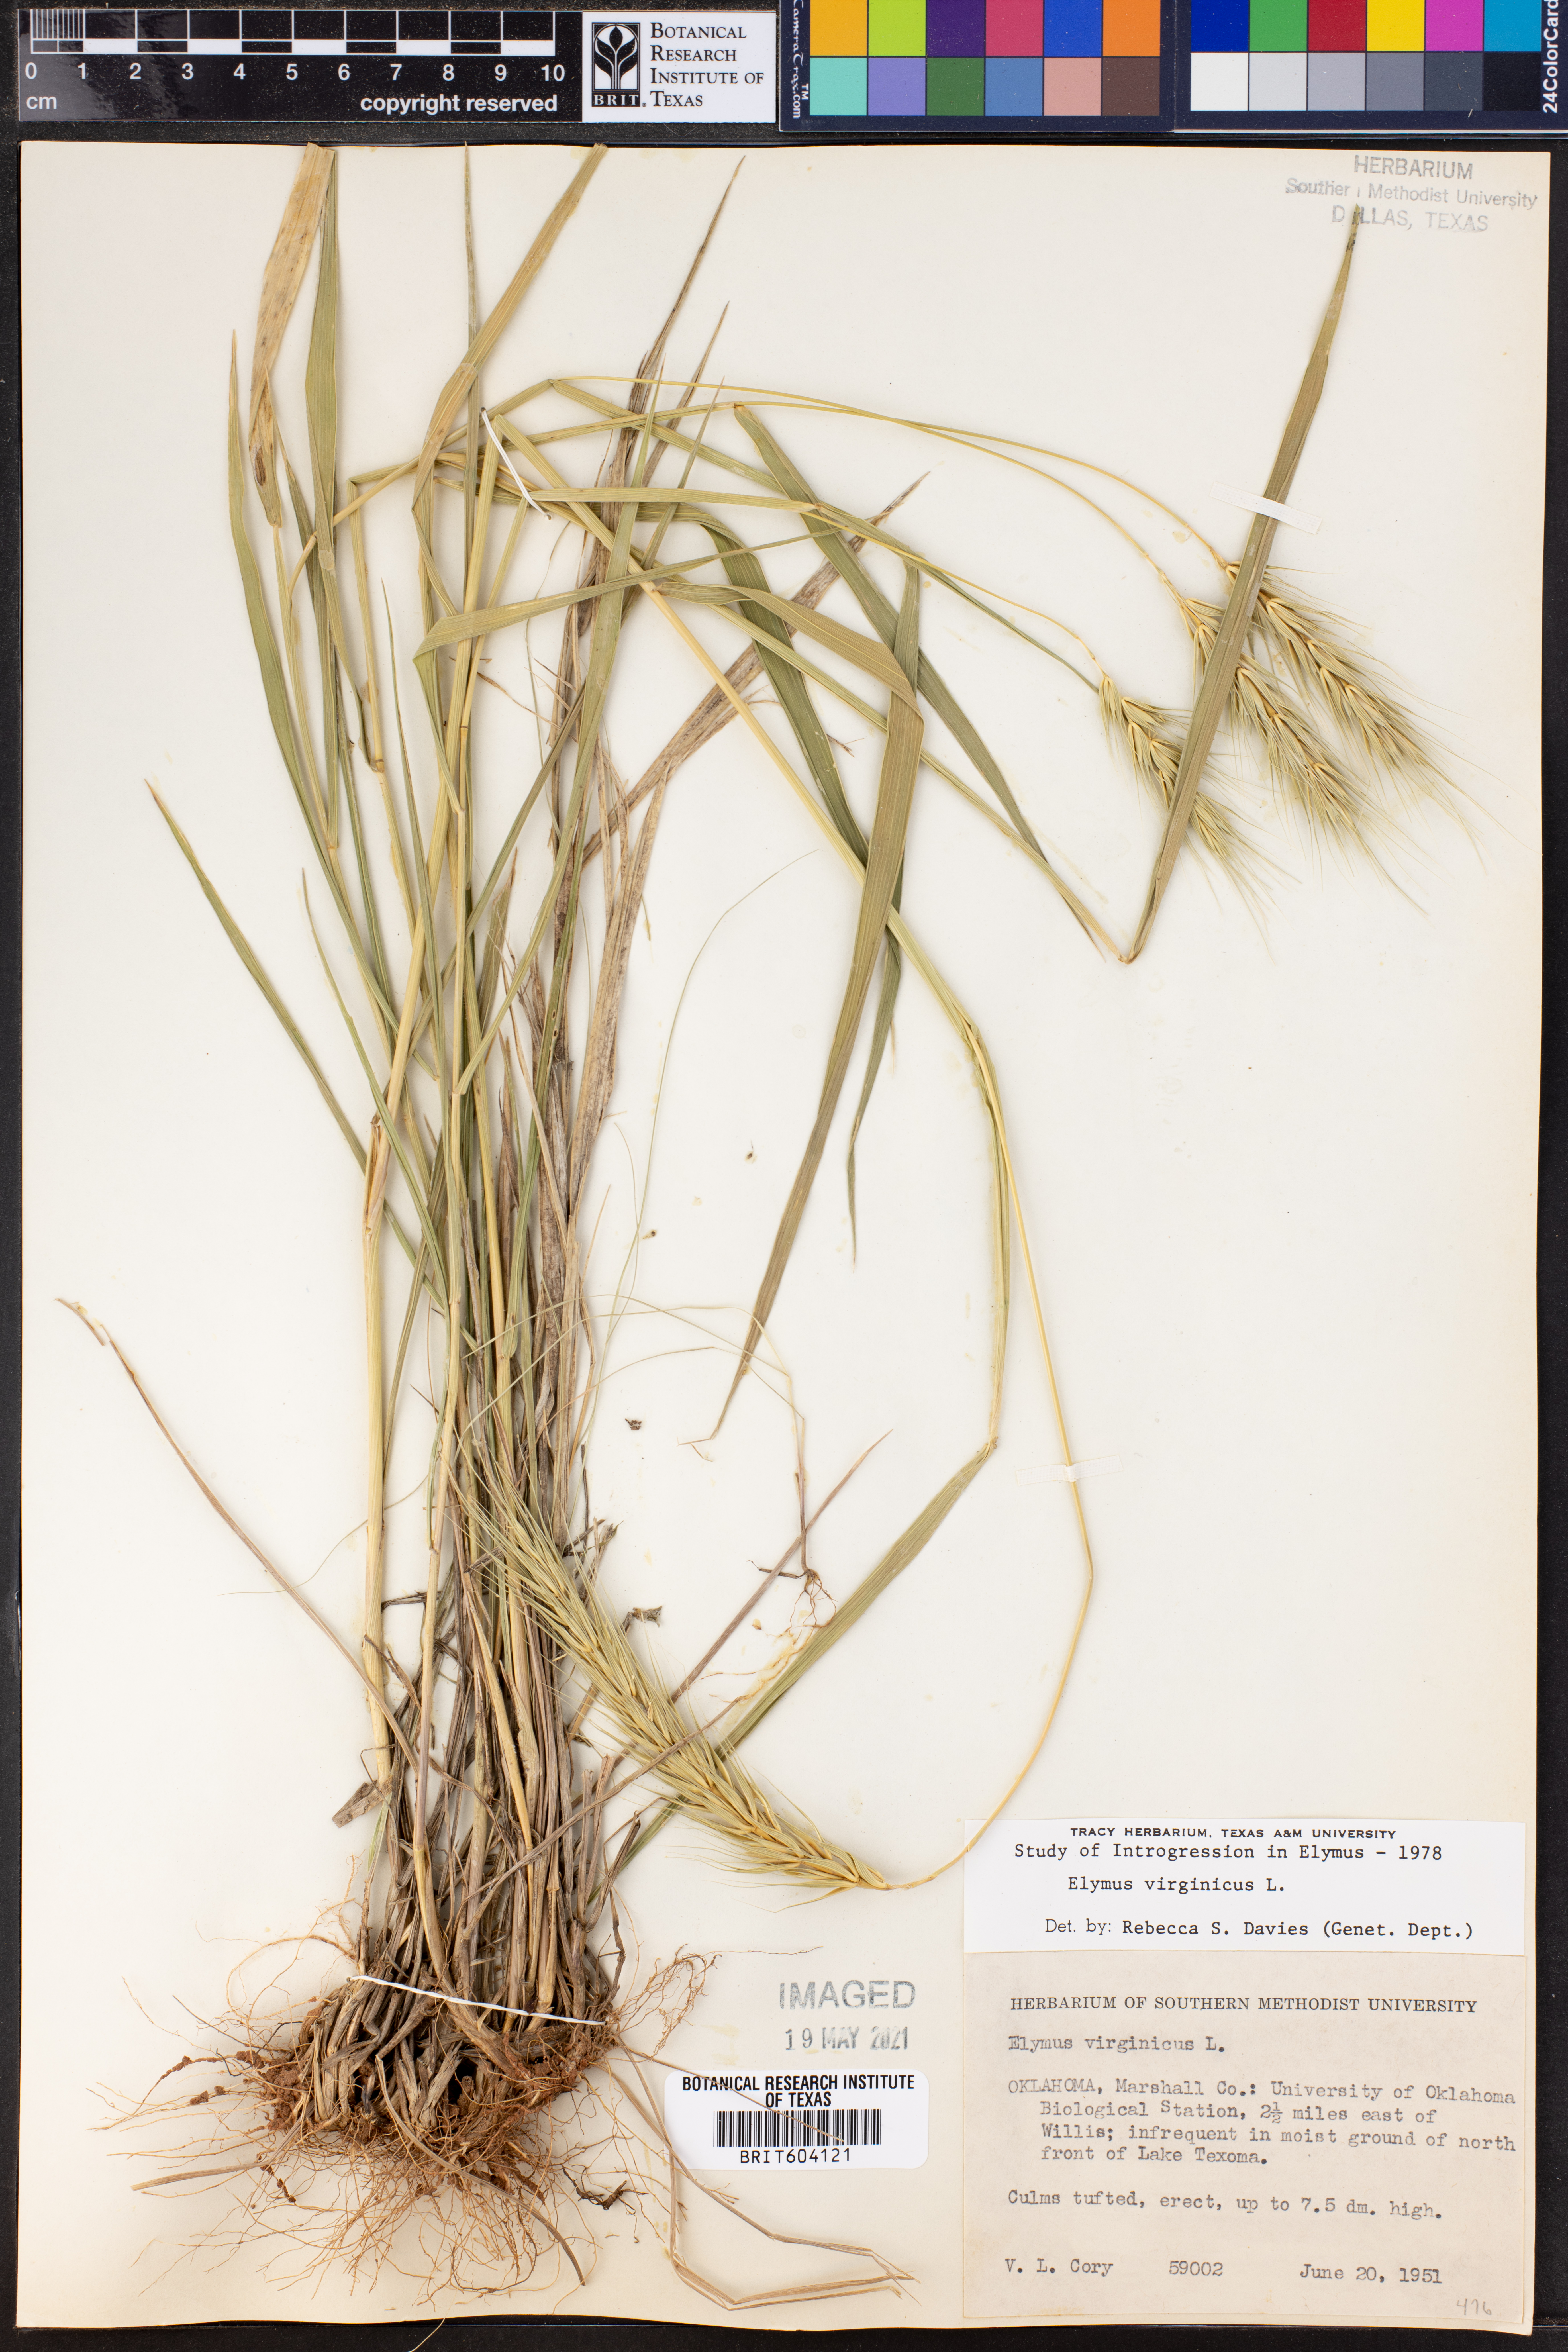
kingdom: Plantae
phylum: Tracheophyta
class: Liliopsida
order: Poales
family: Poaceae
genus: Elymus
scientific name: Elymus virginicus
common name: Common eastern wildrye
